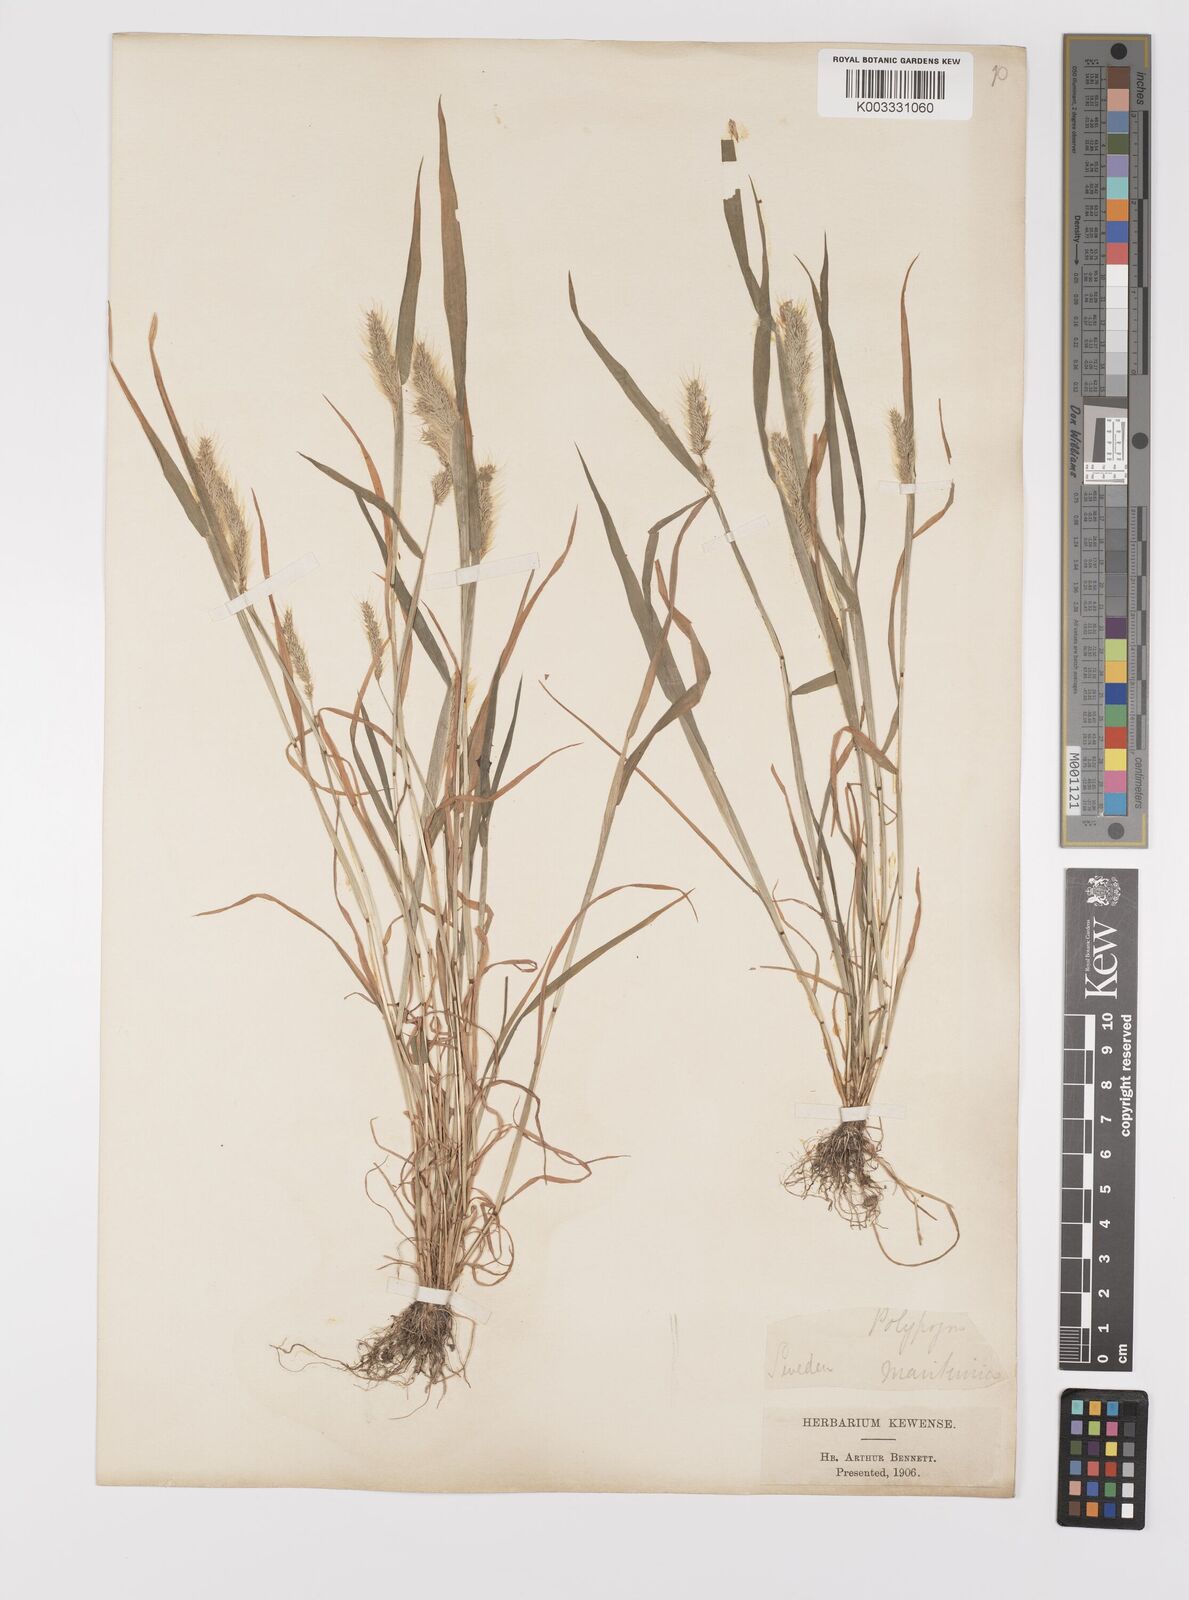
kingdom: Plantae
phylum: Tracheophyta
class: Liliopsida
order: Poales
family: Poaceae
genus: Polypogon
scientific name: Polypogon monspeliensis
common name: Annual rabbitsfoot grass
